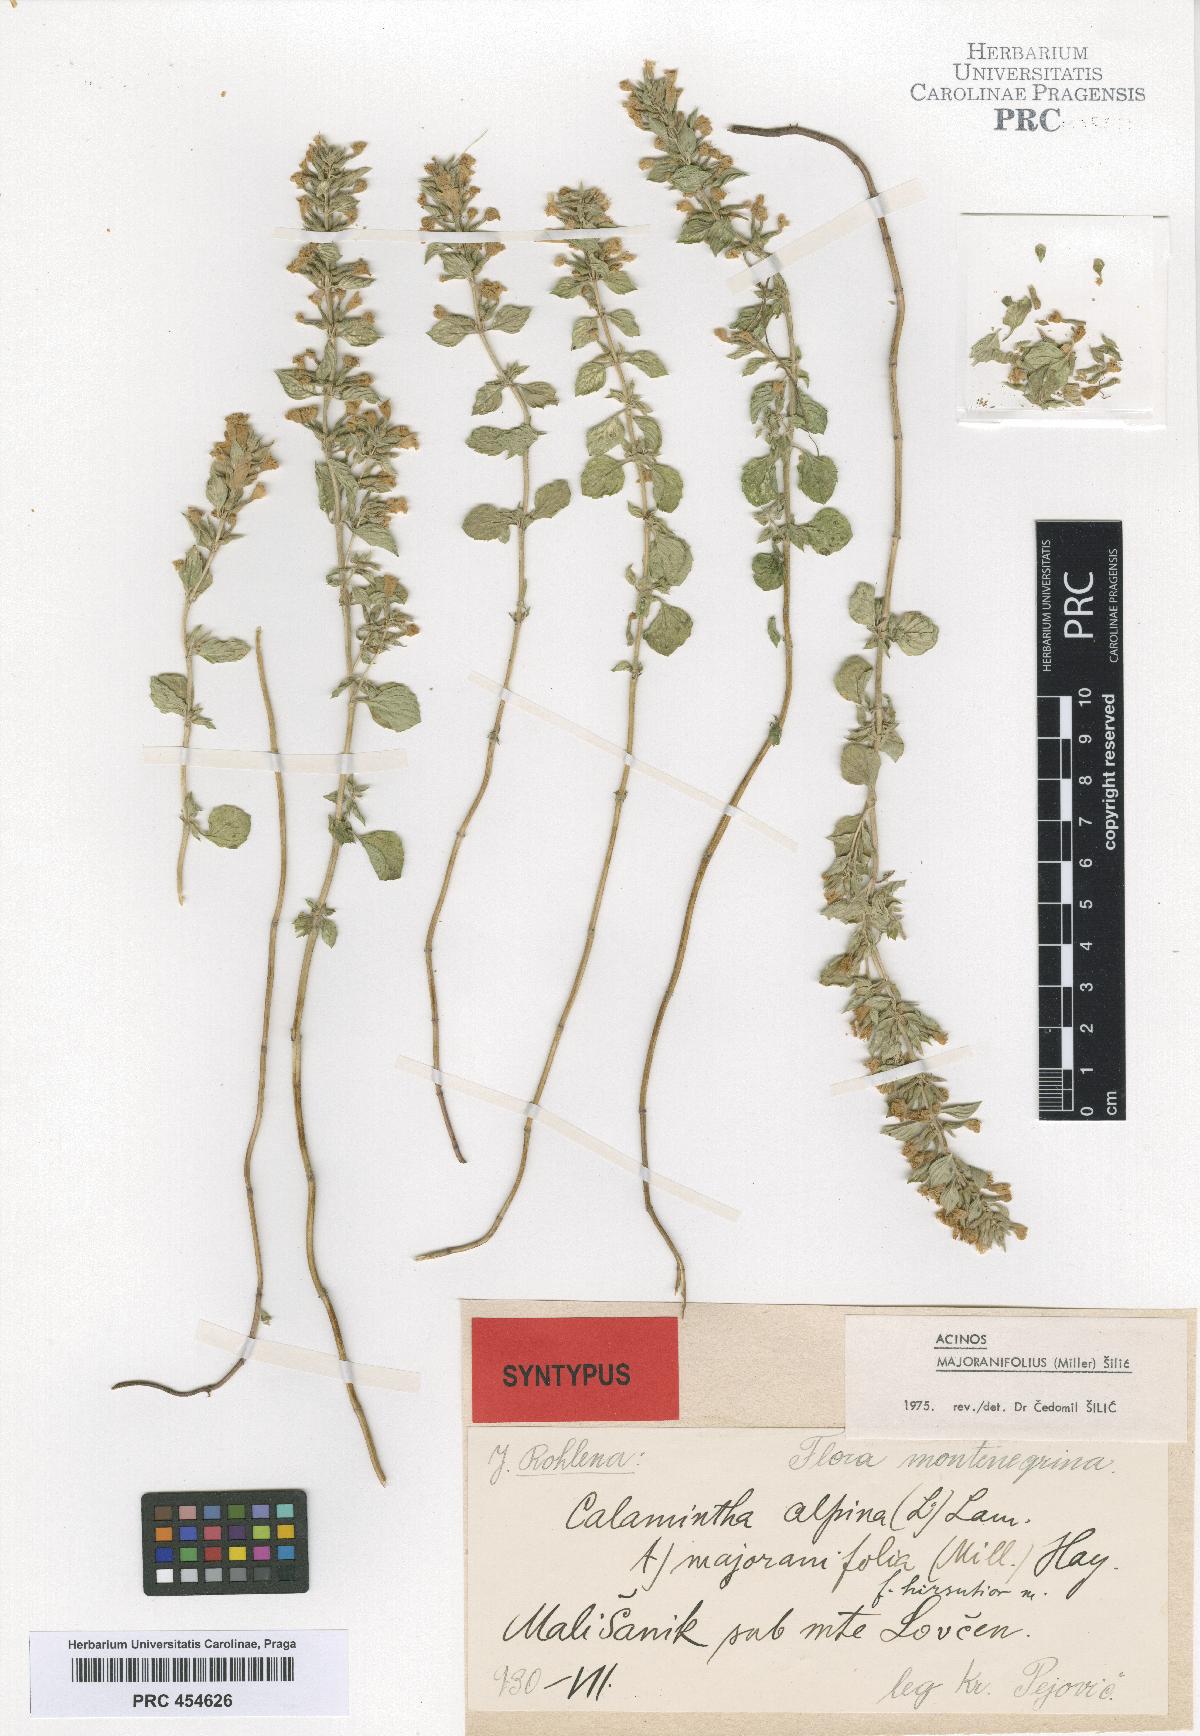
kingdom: Plantae
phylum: Tracheophyta
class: Magnoliopsida
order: Lamiales
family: Lamiaceae
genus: Clinopodium
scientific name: Clinopodium alpinum
